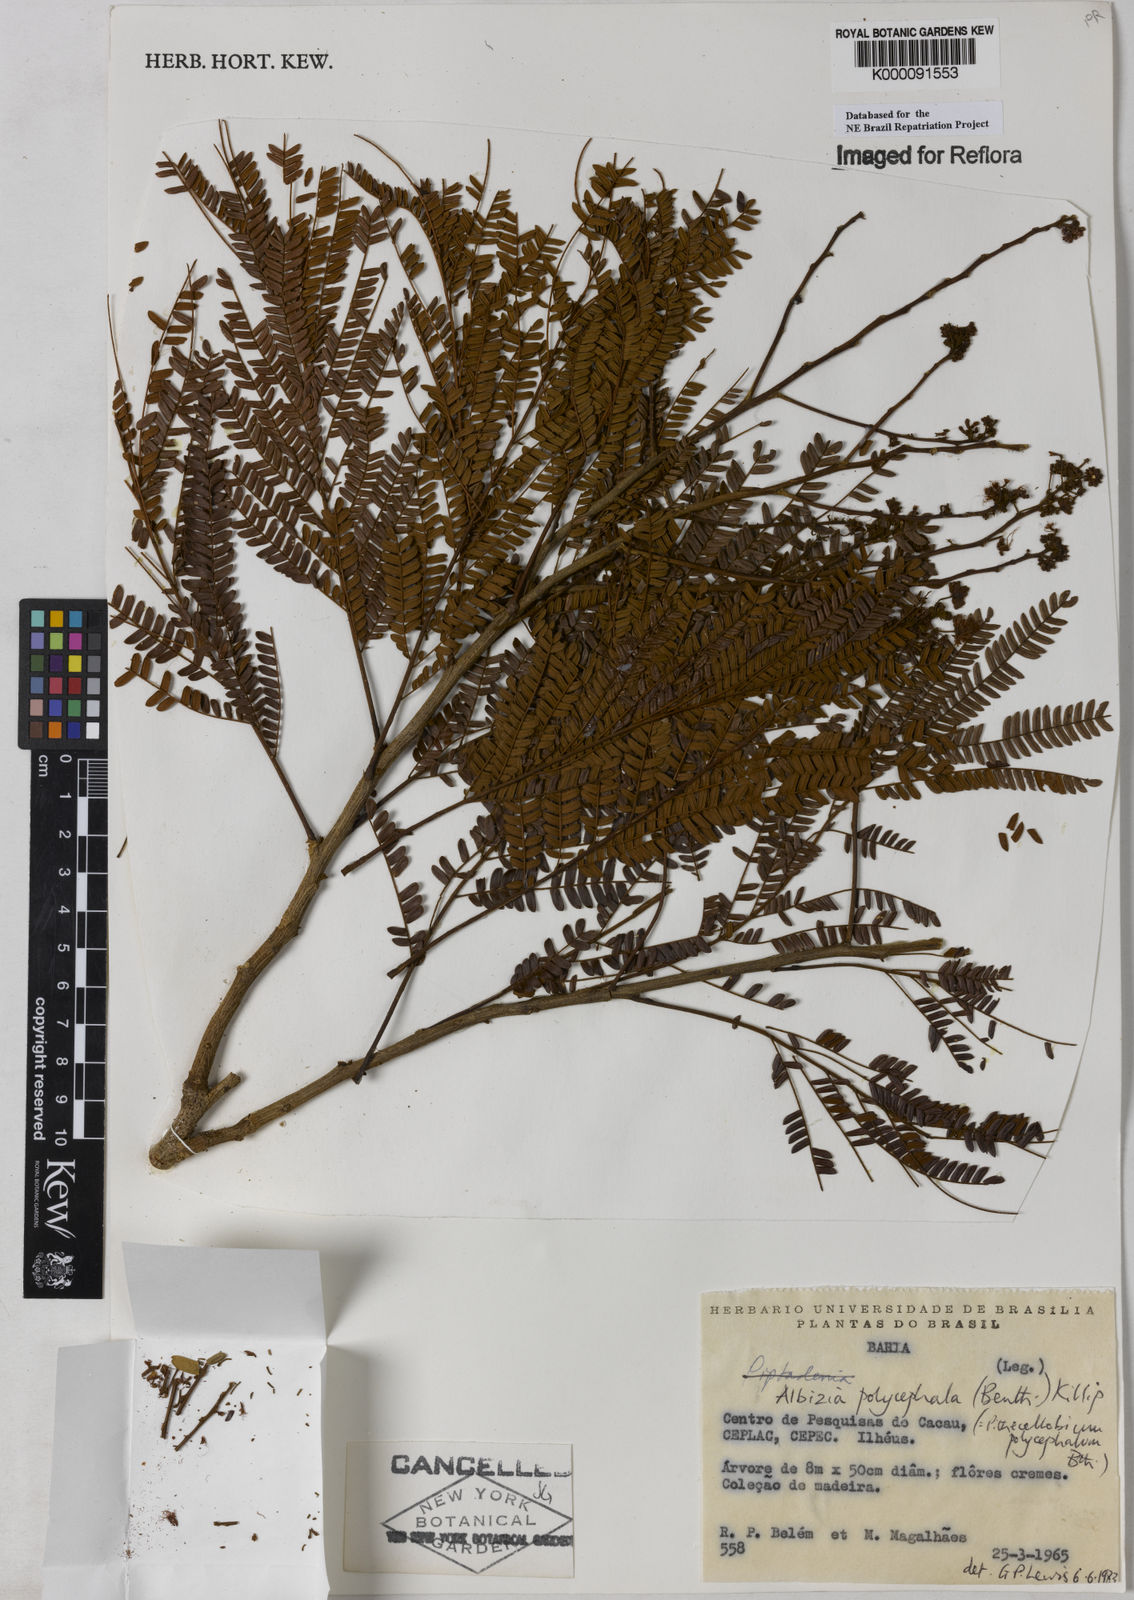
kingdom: Plantae
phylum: Tracheophyta
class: Magnoliopsida
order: Fabales
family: Fabaceae
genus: Albizia
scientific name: Albizia polycephala
